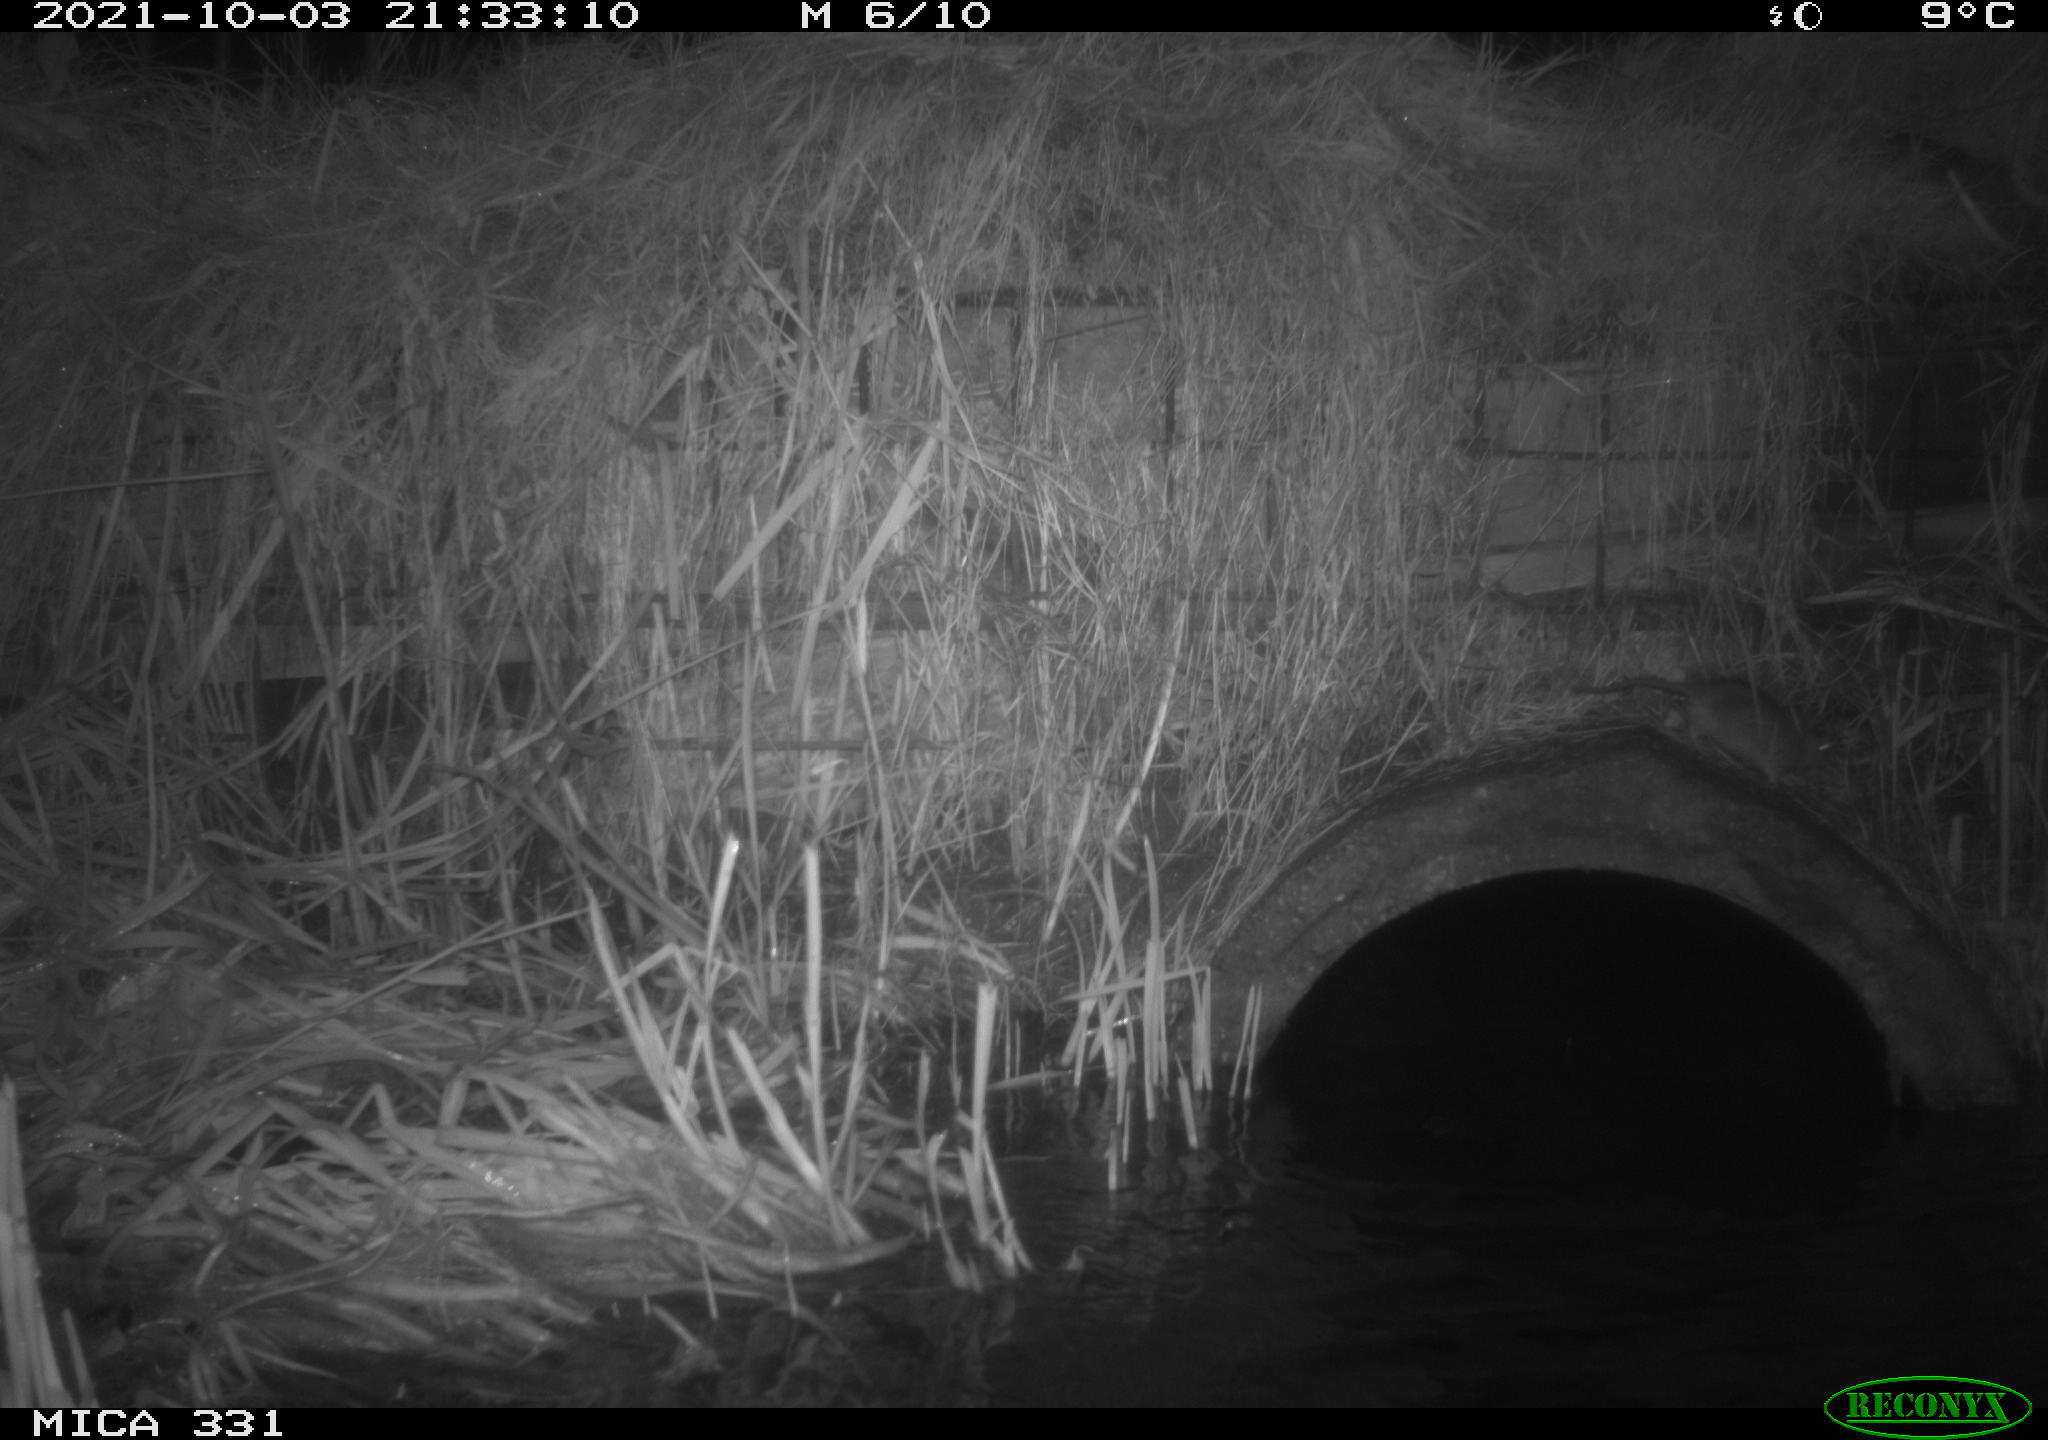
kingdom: Animalia
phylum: Chordata
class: Mammalia
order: Rodentia
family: Muridae
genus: Rattus
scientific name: Rattus norvegicus
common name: Brown rat
